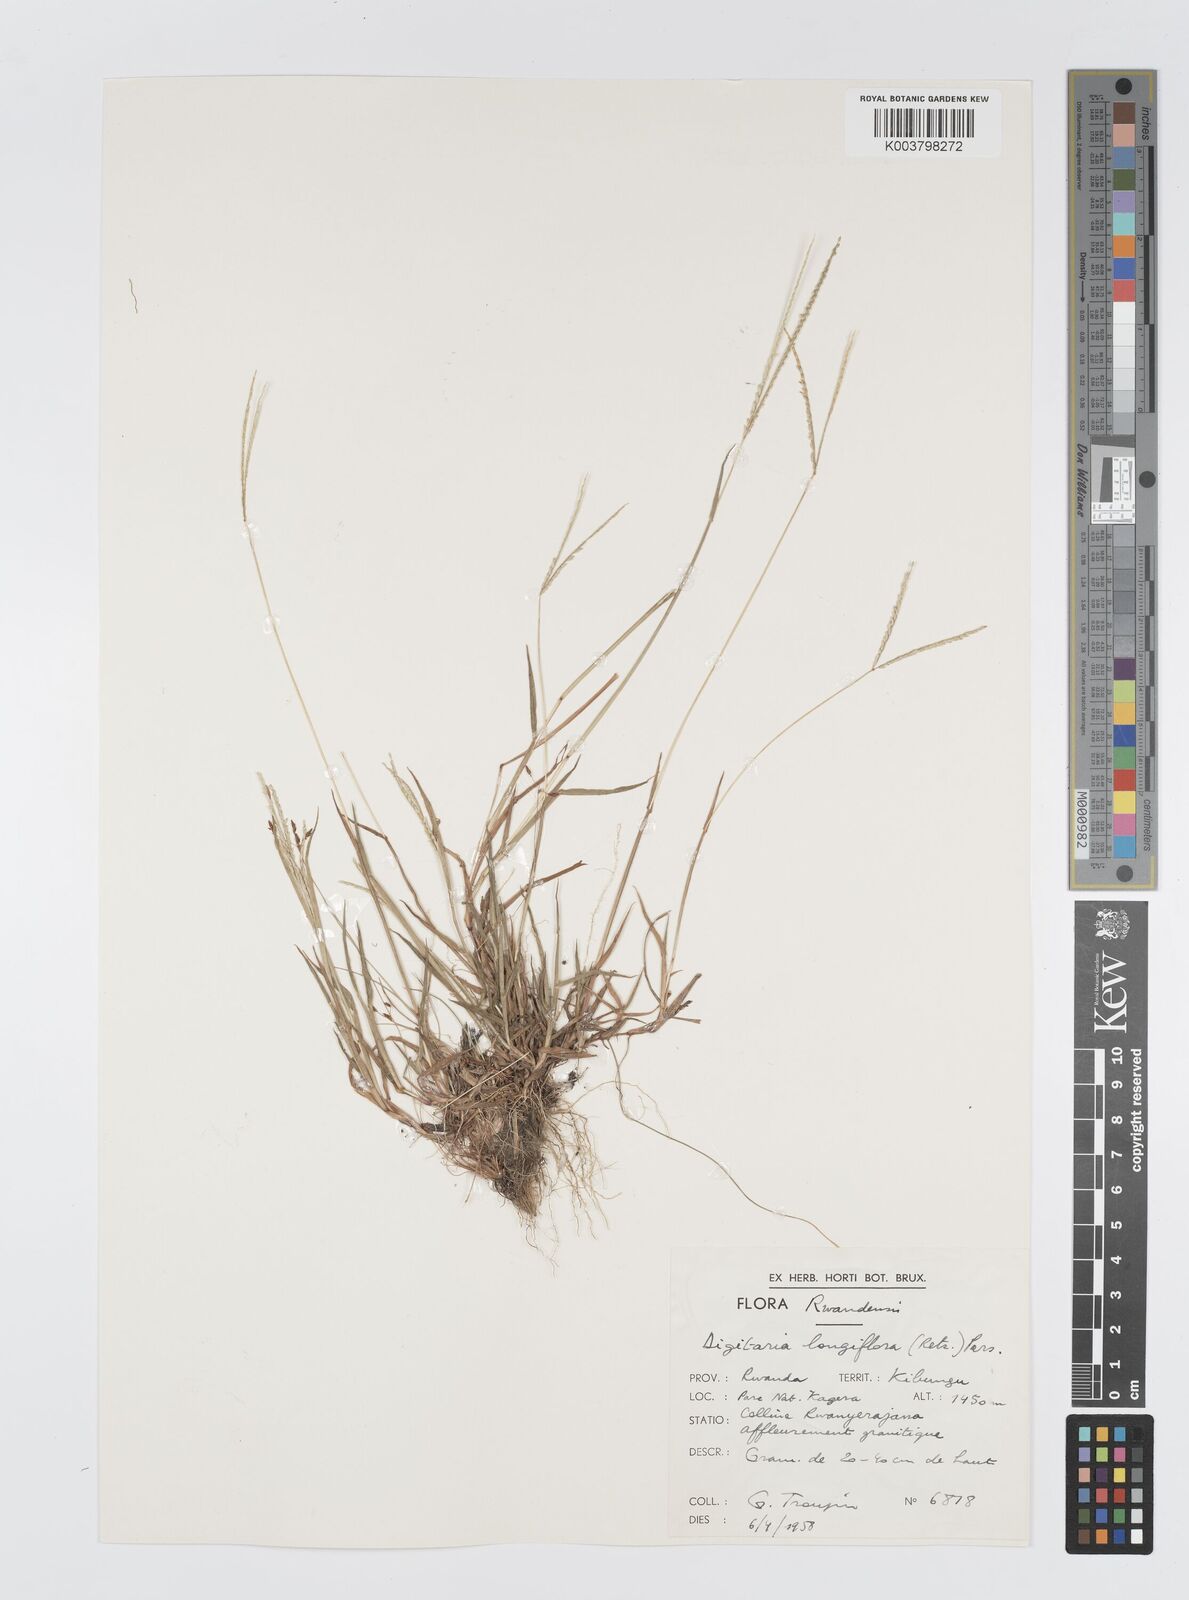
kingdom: Plantae
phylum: Tracheophyta
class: Liliopsida
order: Poales
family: Poaceae
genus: Digitaria
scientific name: Digitaria longiflora
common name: Wire crabgrass
